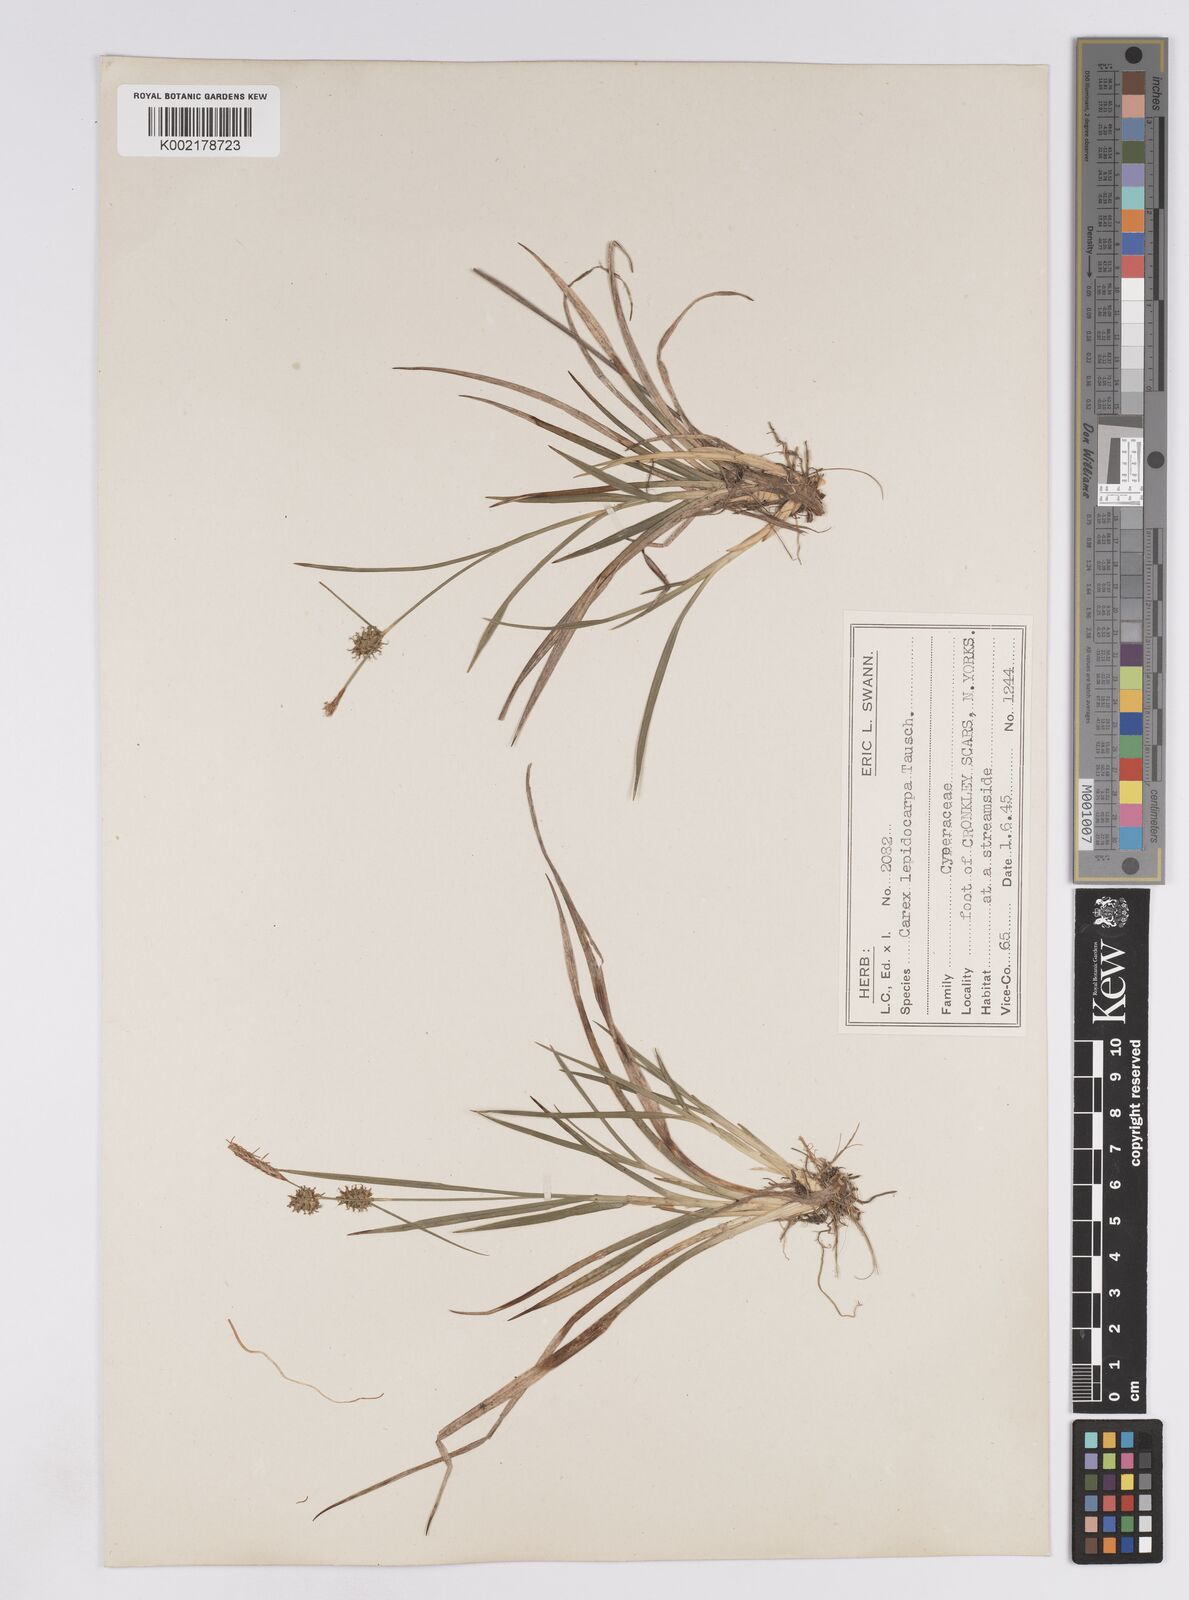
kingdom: Plantae
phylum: Tracheophyta
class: Liliopsida
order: Poales
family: Cyperaceae
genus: Carex
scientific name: Carex lepidocarpa
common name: Long-stalked yellow-sedge
